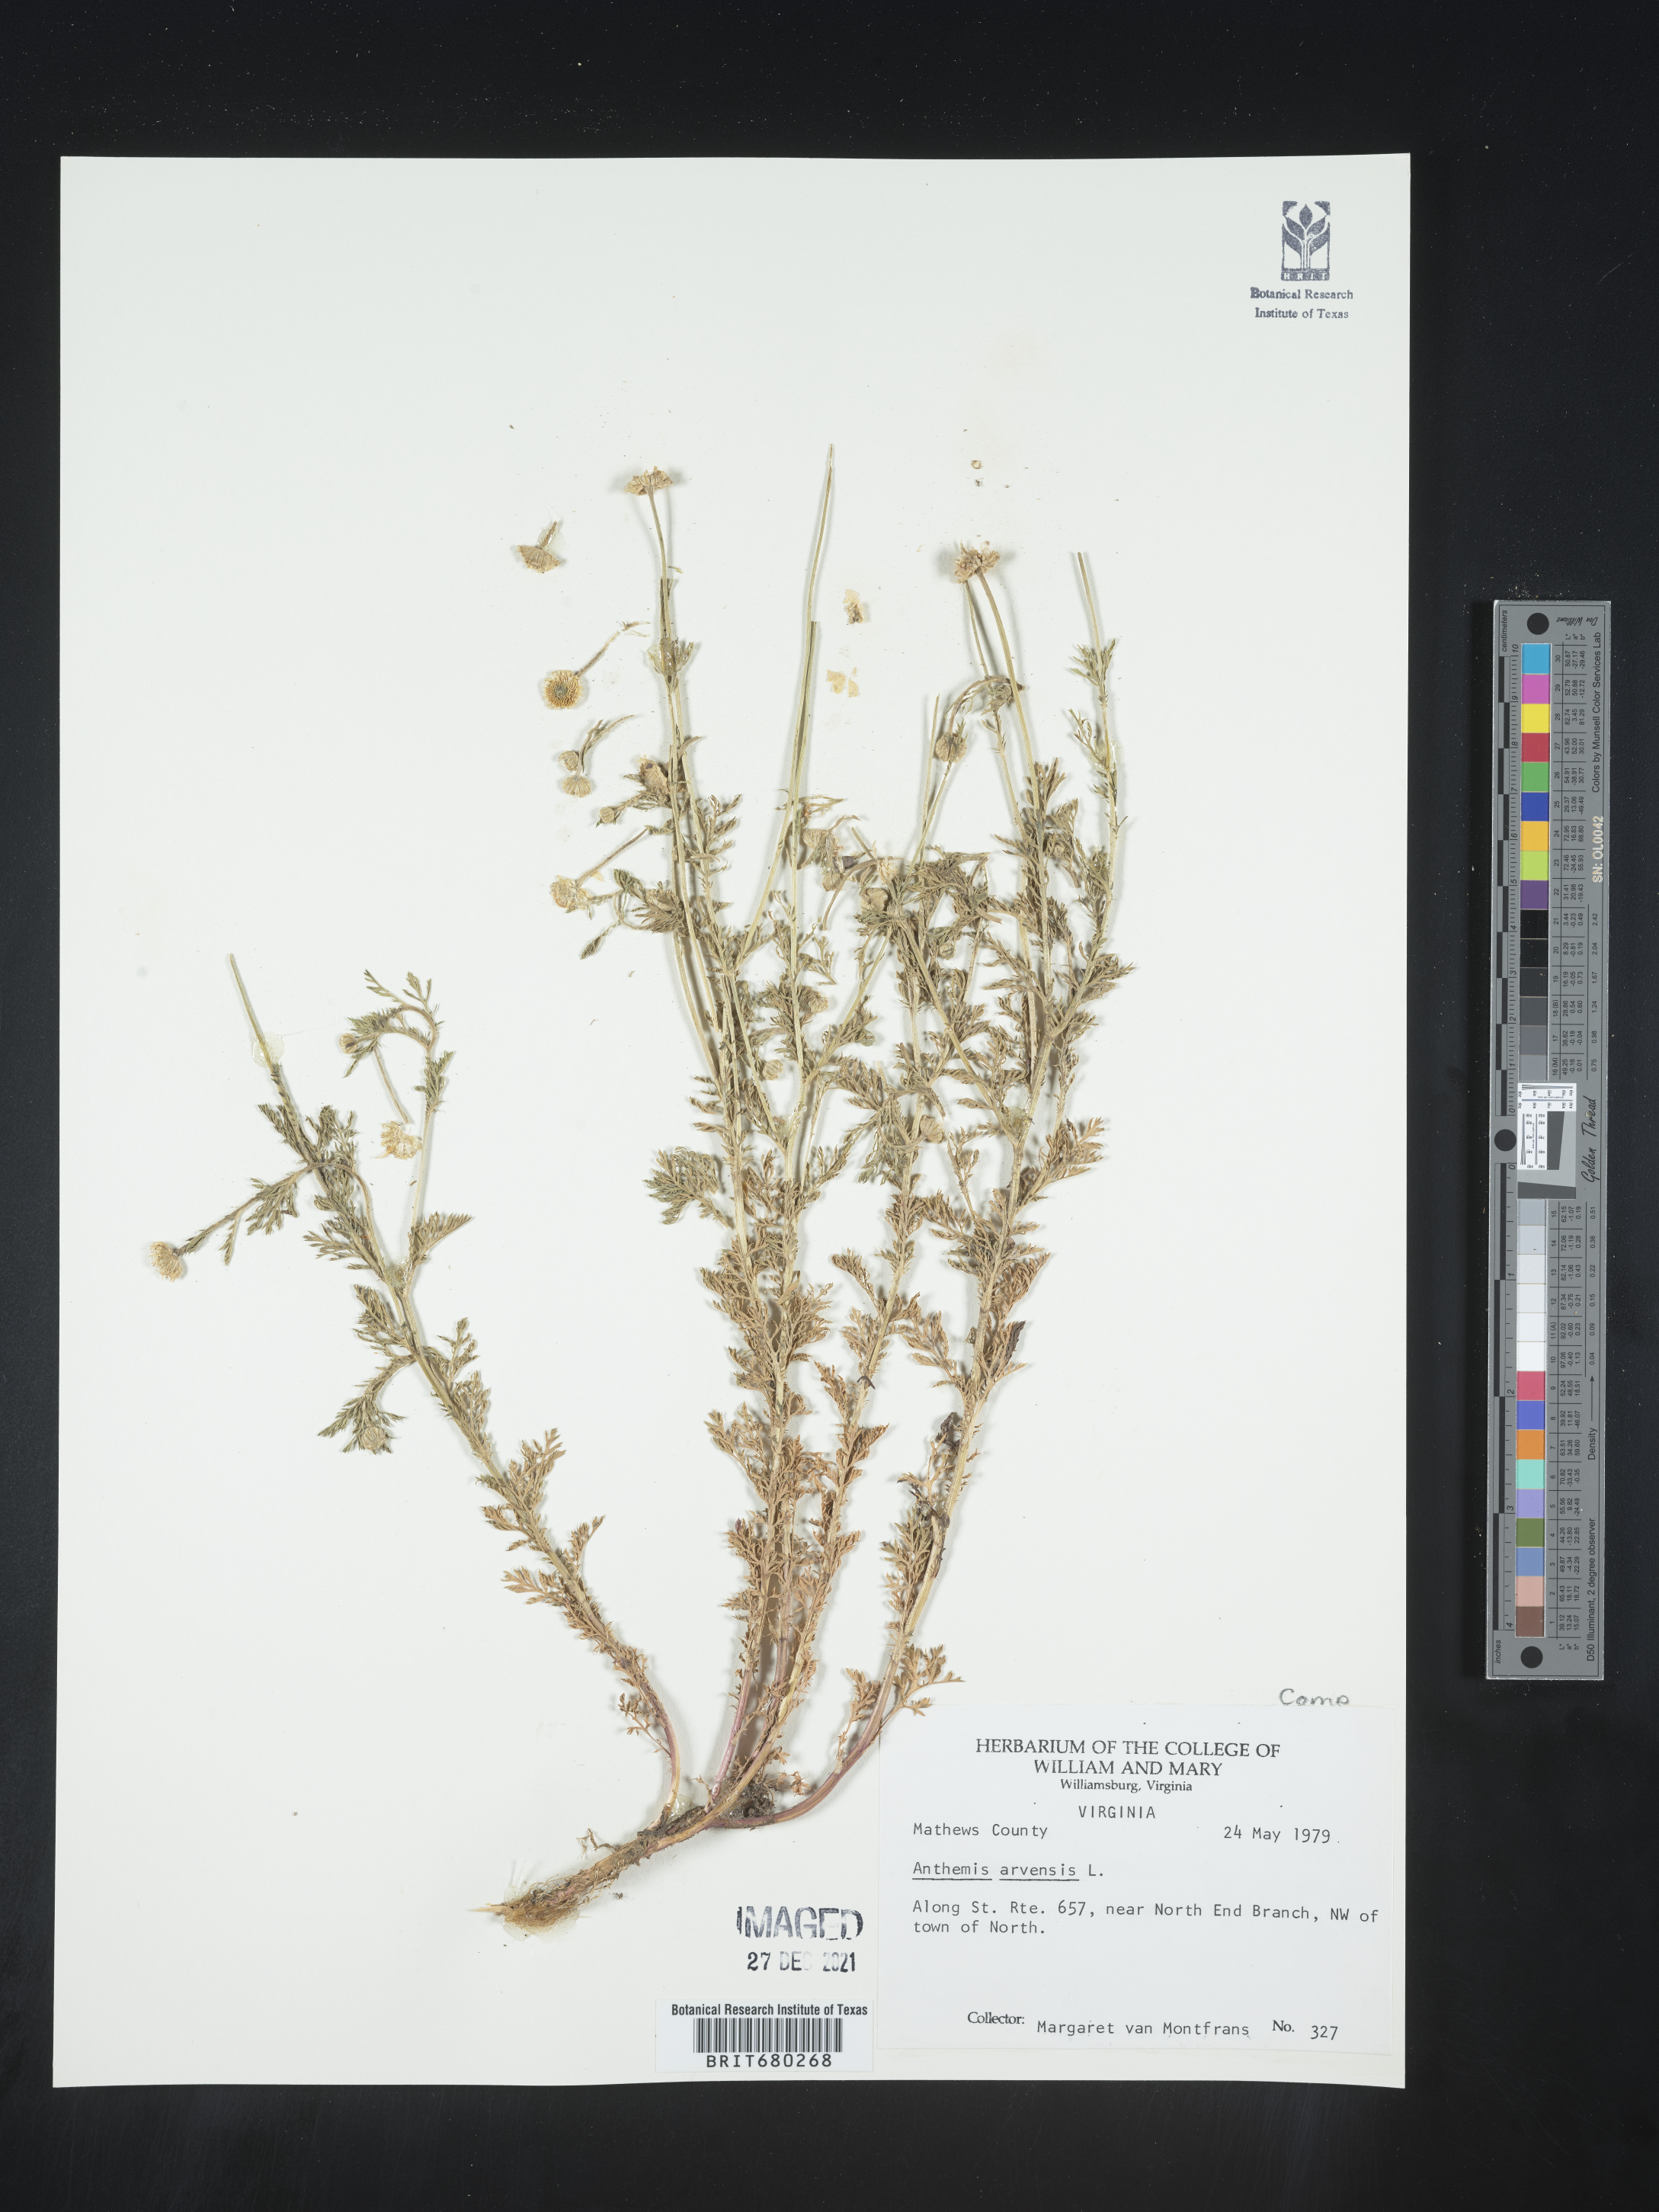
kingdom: Plantae
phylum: Tracheophyta
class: Magnoliopsida
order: Asterales
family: Asteraceae
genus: Anthemis
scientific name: Anthemis arvensis
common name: Corn chamomile
